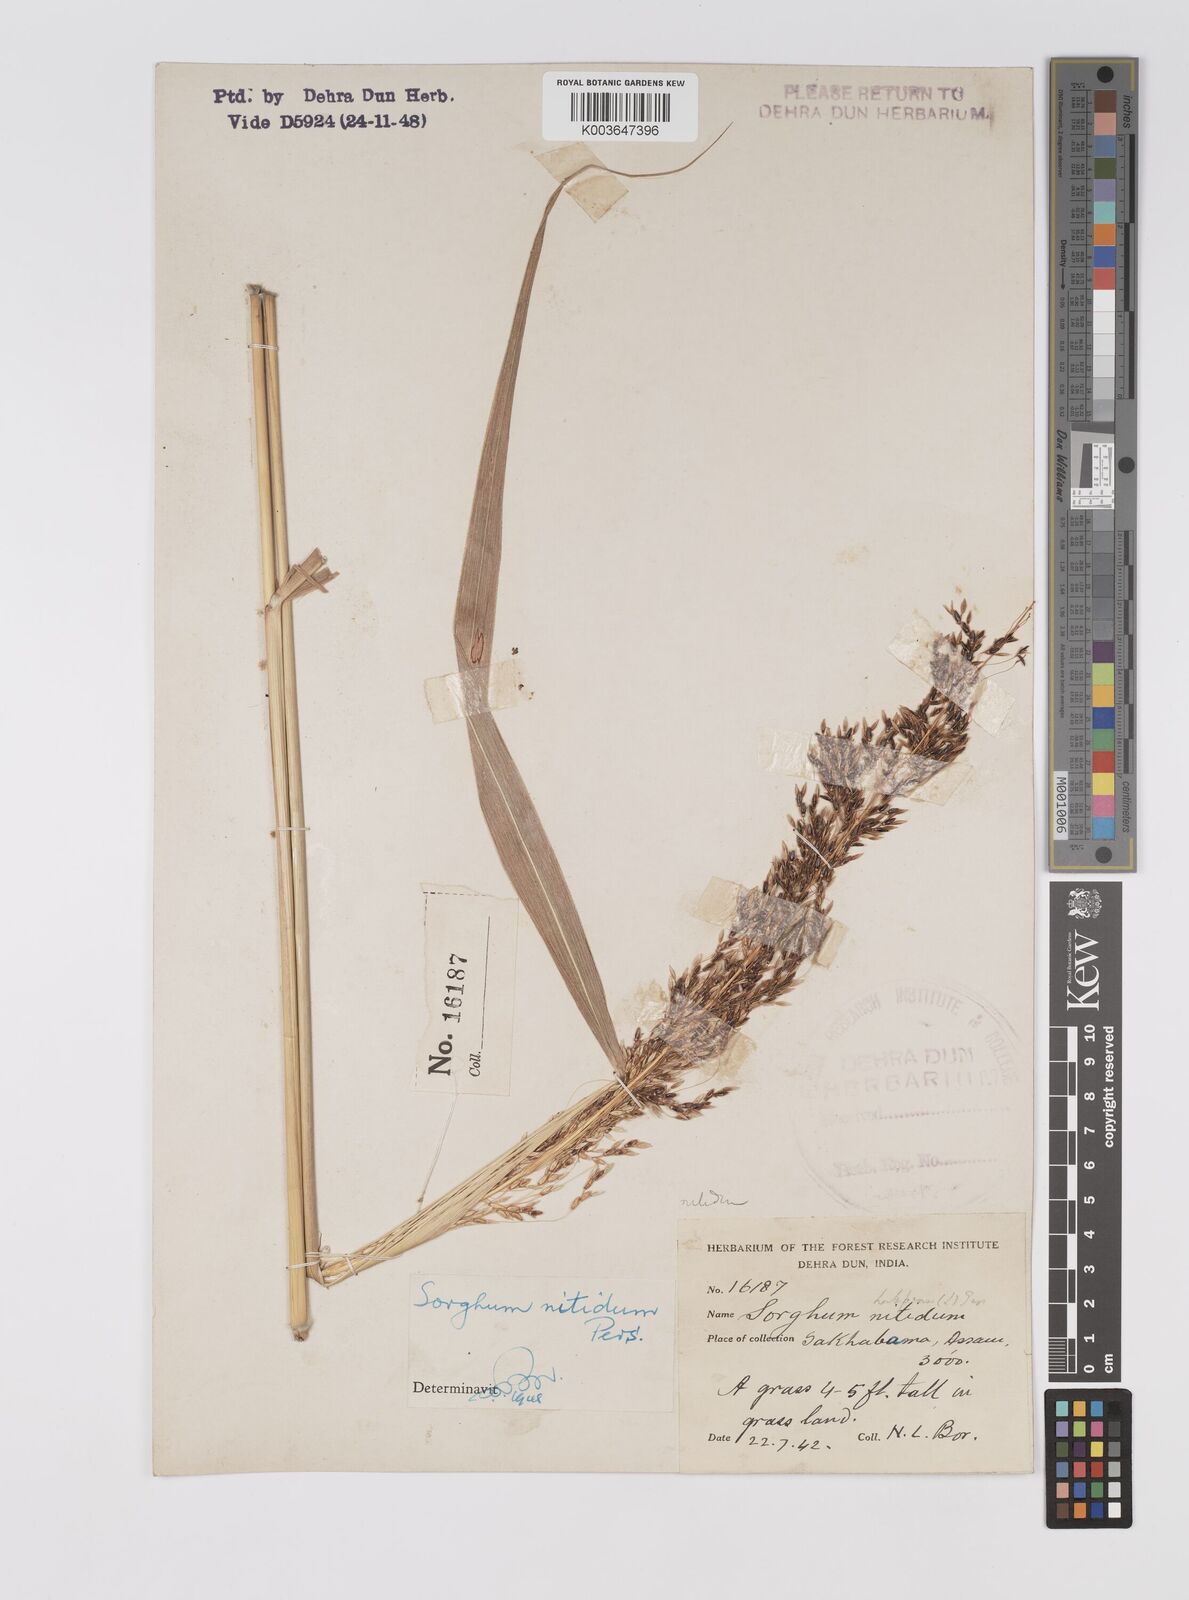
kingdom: Plantae
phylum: Tracheophyta
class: Liliopsida
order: Poales
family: Poaceae
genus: Sorghum
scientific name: Sorghum nitidum
